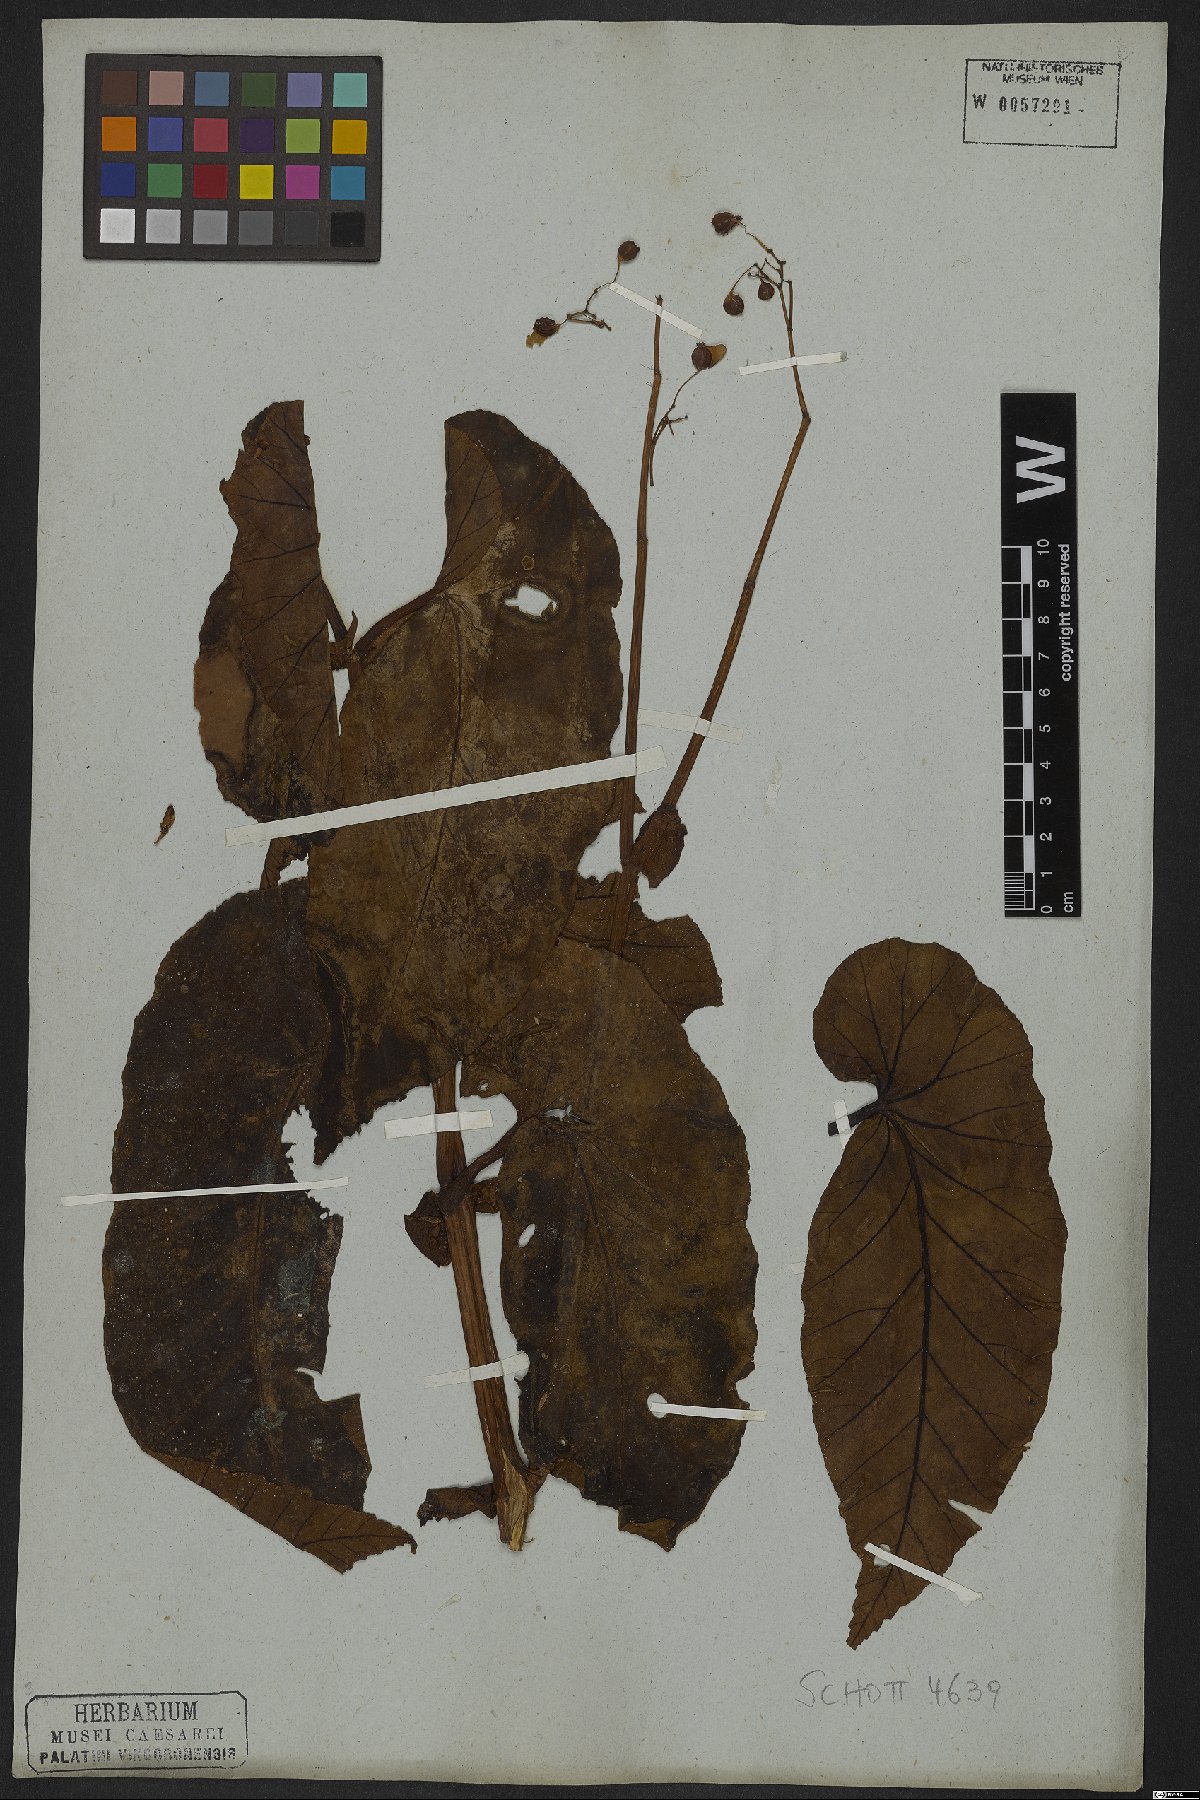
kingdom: Plantae
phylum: Tracheophyta
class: Magnoliopsida
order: Cucurbitales
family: Begoniaceae
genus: Begonia
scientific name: Begonia angularis
